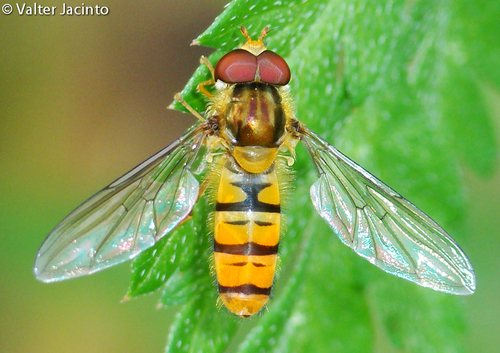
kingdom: Animalia
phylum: Arthropoda
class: Insecta
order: Diptera
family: Syrphidae
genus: Episyrphus
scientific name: Episyrphus balteatus
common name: Marmalade hoverfly
